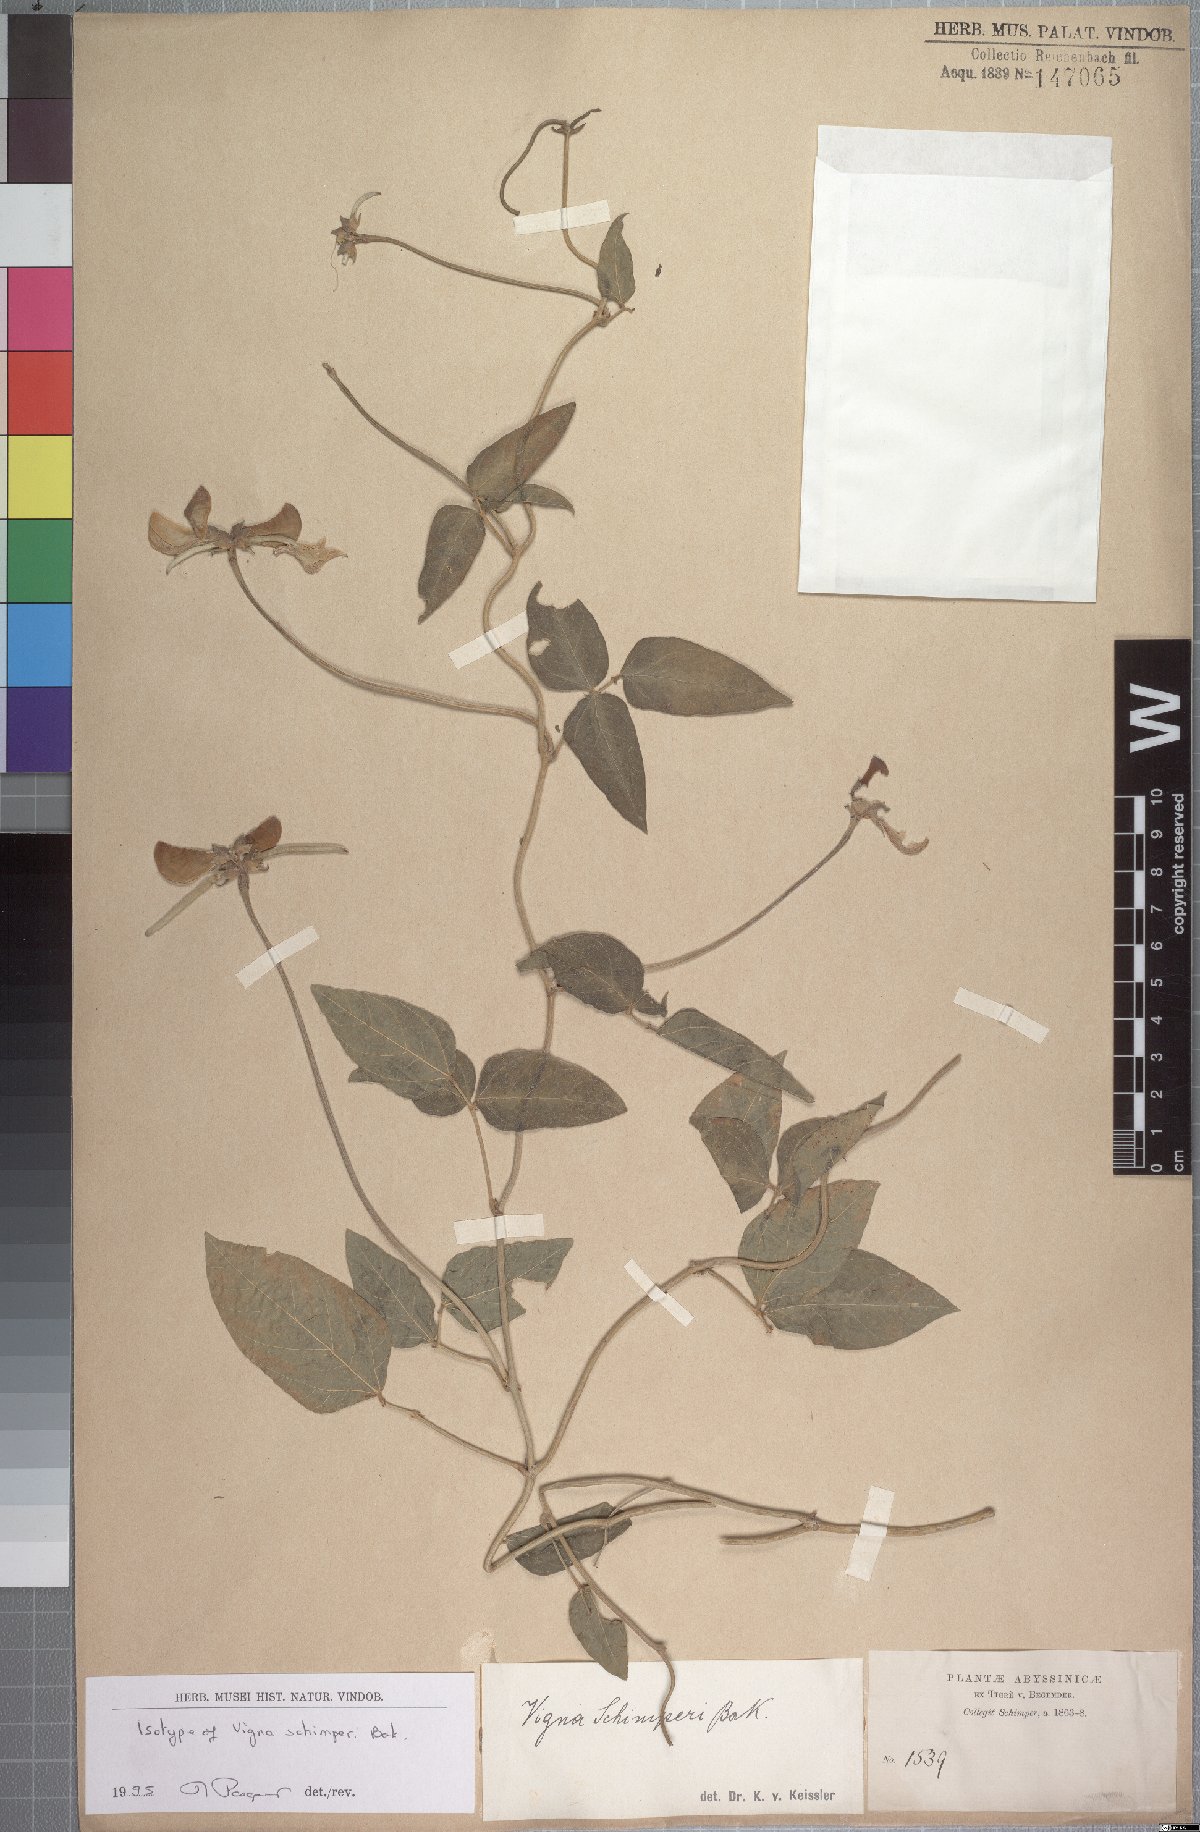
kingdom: Plantae
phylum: Tracheophyta
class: Magnoliopsida
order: Fabales
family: Fabaceae
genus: Vigna
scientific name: Vigna schimperi
